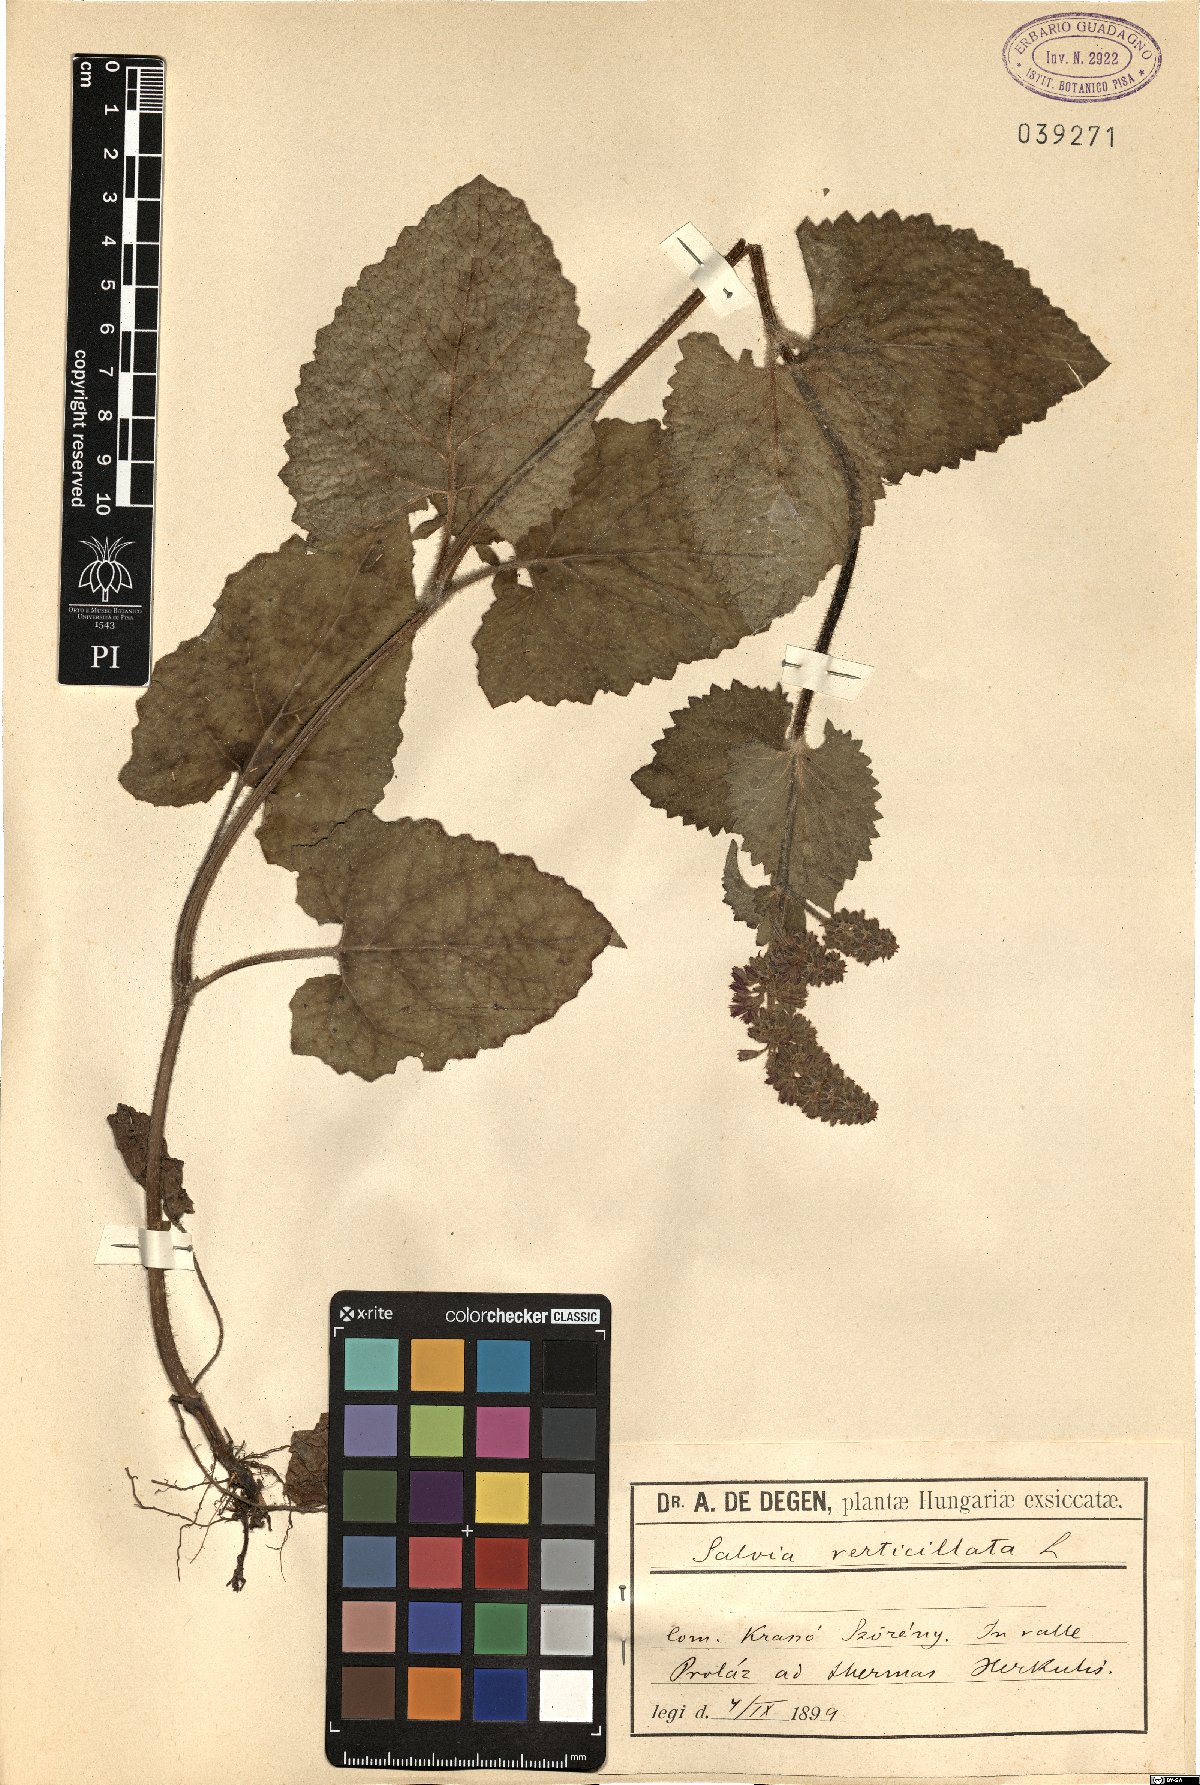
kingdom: Plantae
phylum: Tracheophyta
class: Magnoliopsida
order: Lamiales
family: Lamiaceae
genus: Salvia
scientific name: Salvia verticillata
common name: Whorled clary
